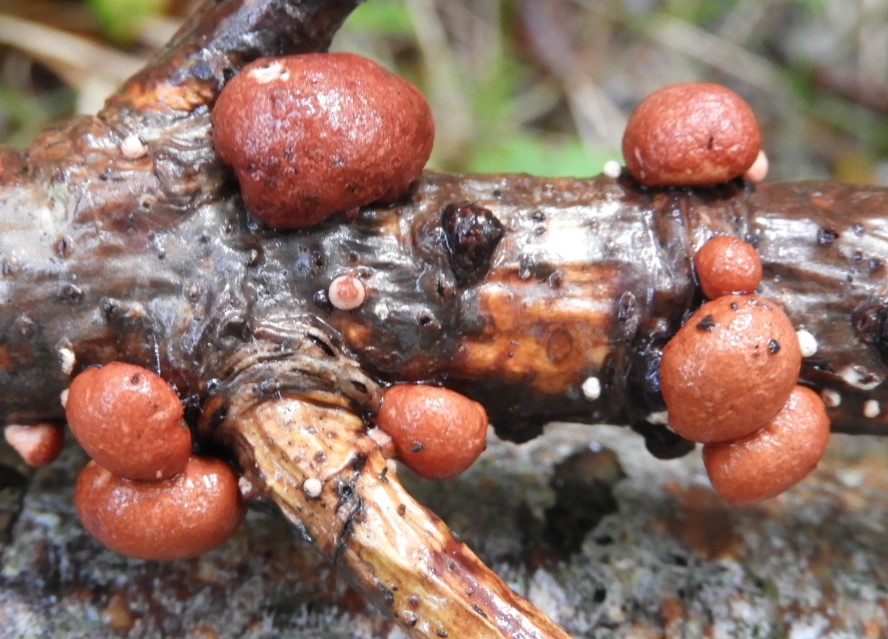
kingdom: Fungi
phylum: Ascomycota
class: Sordariomycetes
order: Hypocreales
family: Hypocreaceae
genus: Trichoderma
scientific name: Trichoderma europaeum
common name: rosabrun kødkerne
